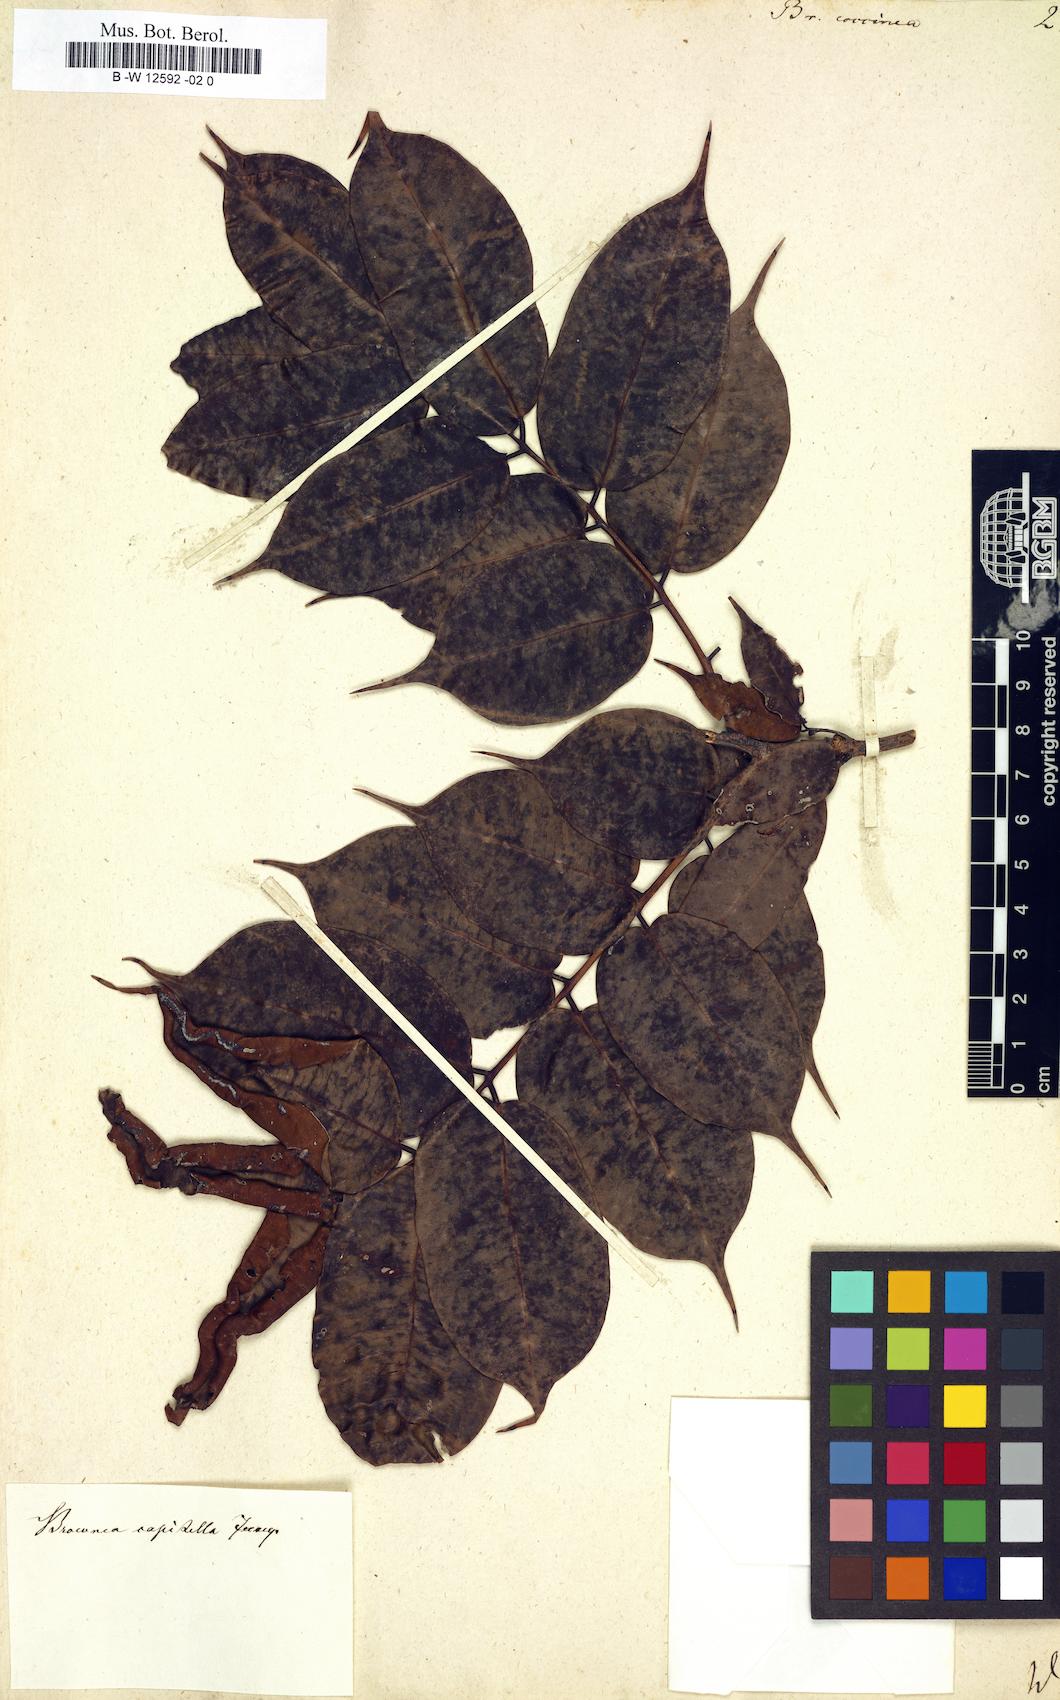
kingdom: Plantae
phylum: Tracheophyta
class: Magnoliopsida
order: Fabales
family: Fabaceae
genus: Brownea
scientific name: Brownea coccinea
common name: Scarlet flame-bean
